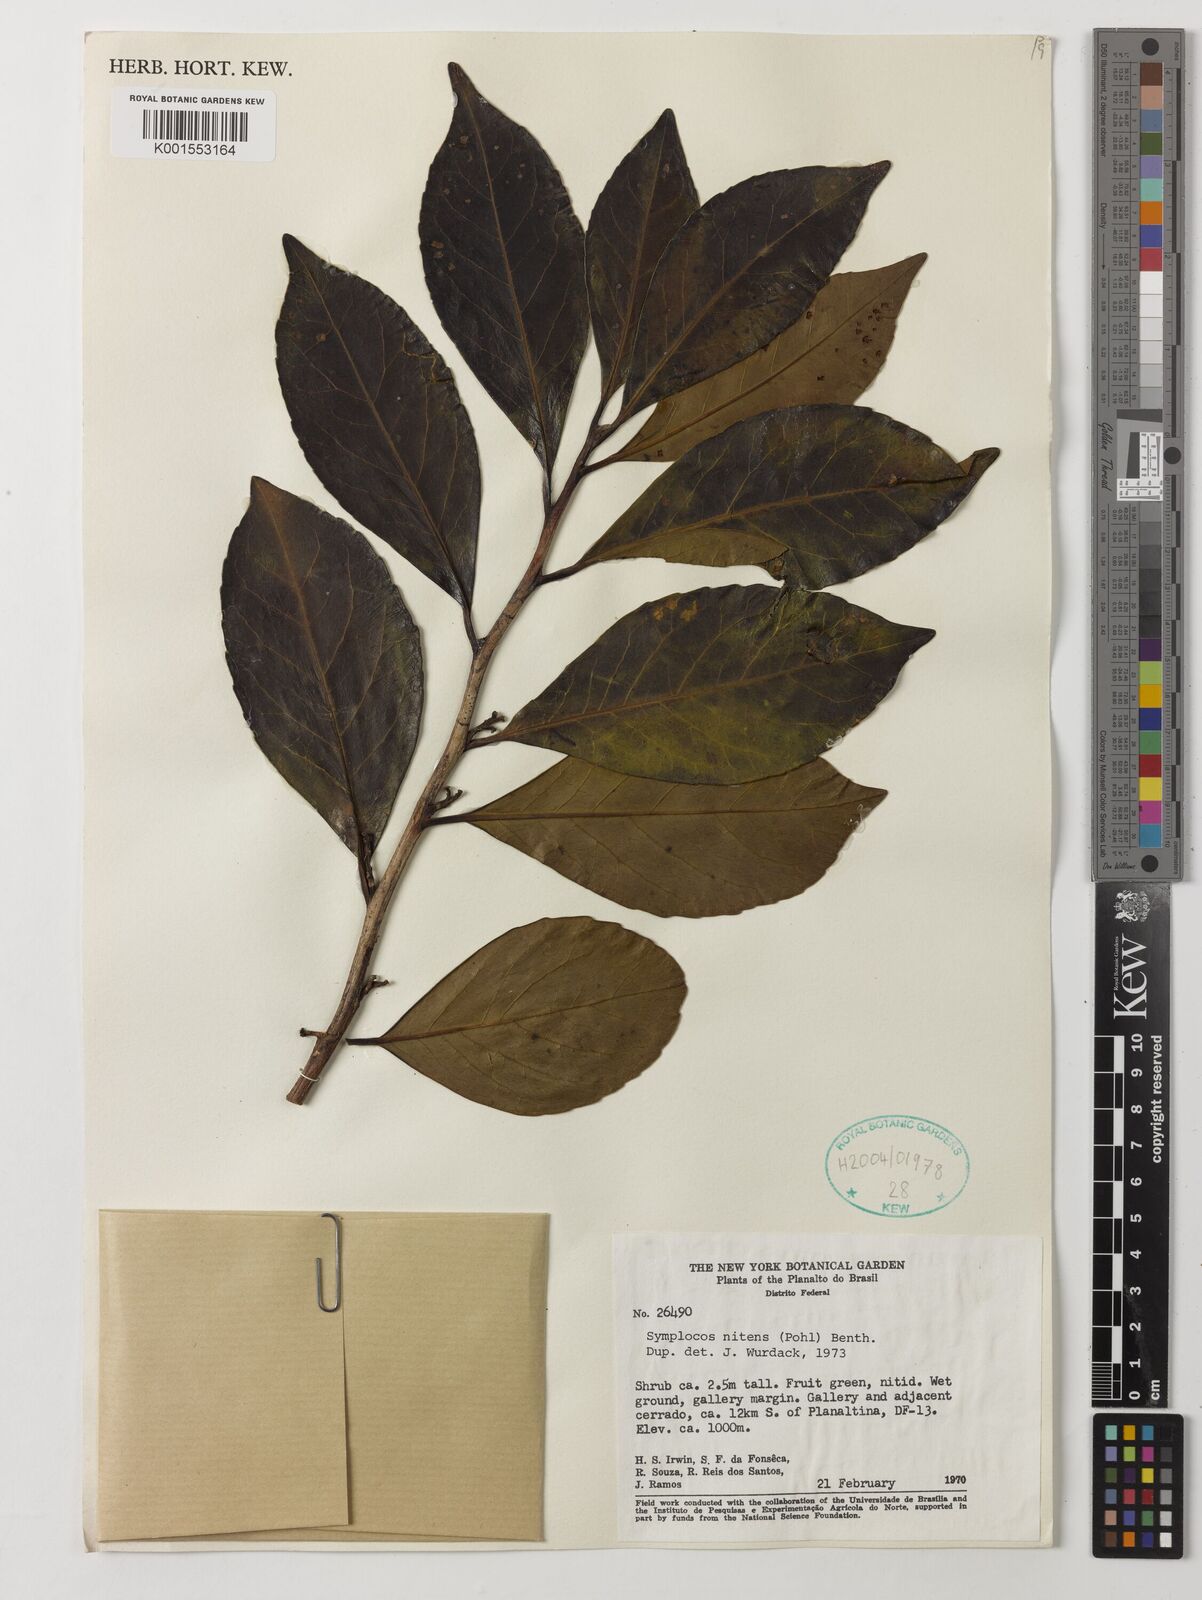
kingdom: Plantae
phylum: Tracheophyta
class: Magnoliopsida
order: Ericales
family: Symplocaceae
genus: Symplocos
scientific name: Symplocos nitens
